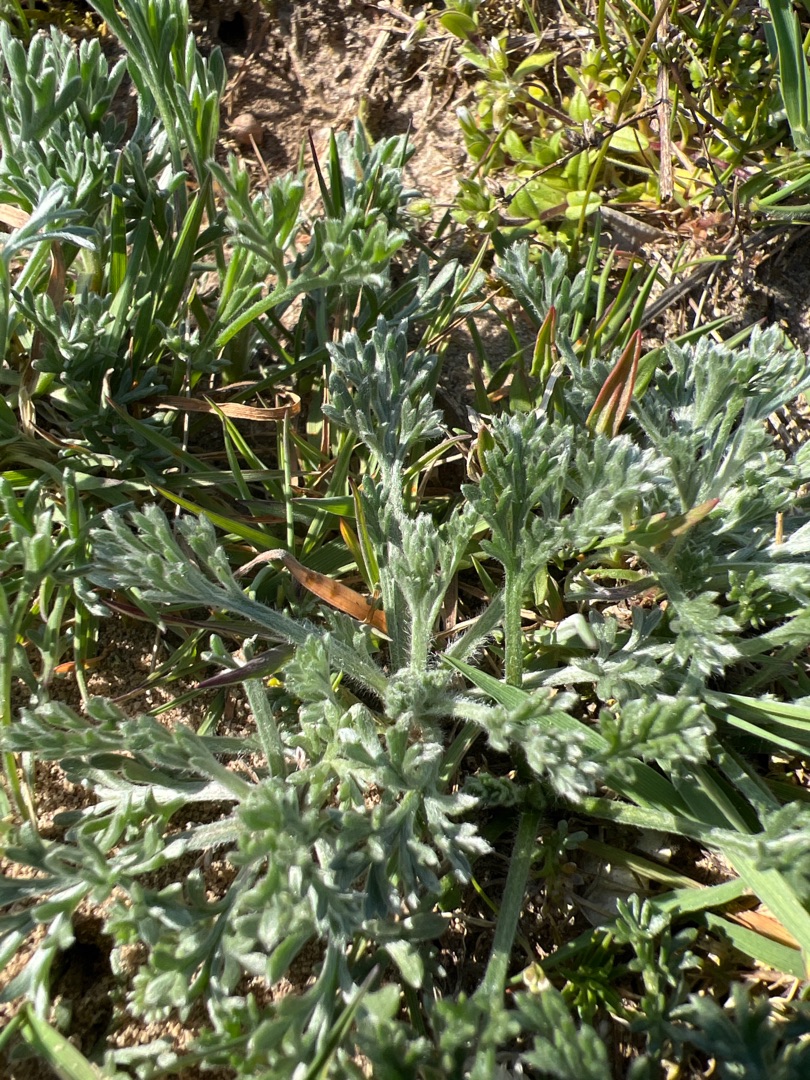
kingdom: Plantae
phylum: Tracheophyta
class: Magnoliopsida
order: Asterales
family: Asteraceae
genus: Artemisia
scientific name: Artemisia campestris
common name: Mark-bynke
